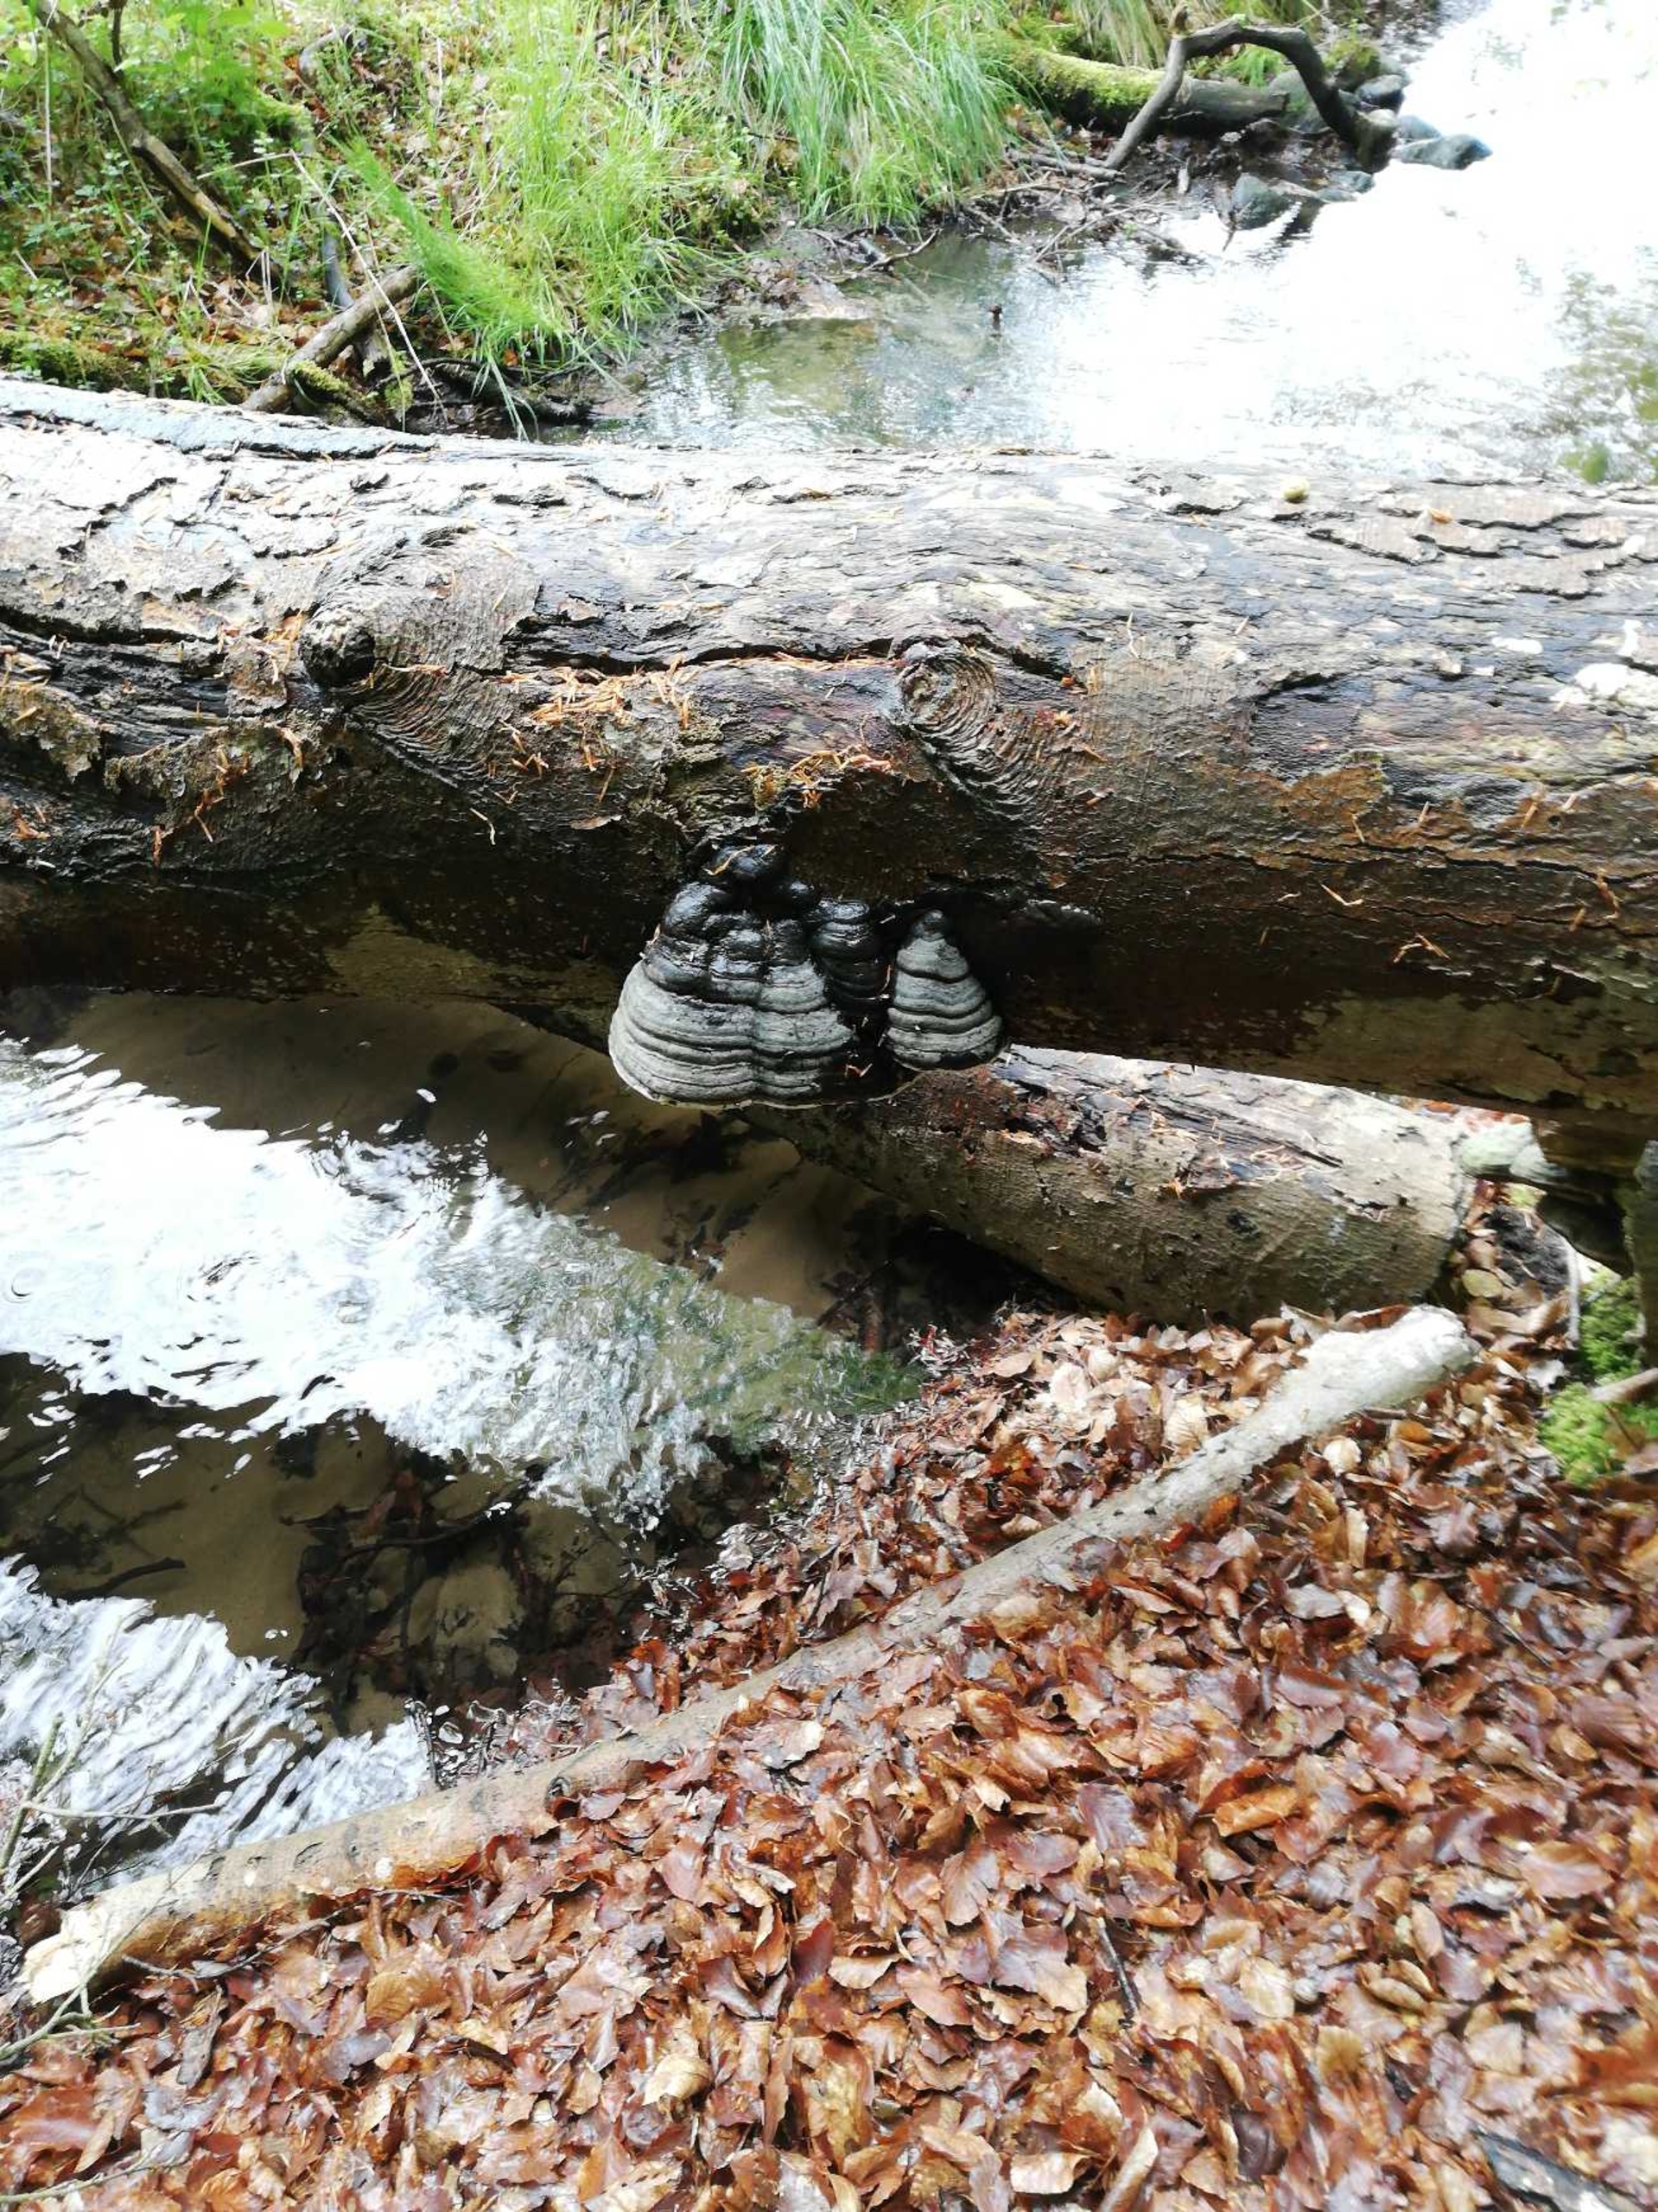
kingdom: Fungi
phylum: Basidiomycota
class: Agaricomycetes
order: Polyporales
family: Polyporaceae
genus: Fomes
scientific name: Fomes fomentarius
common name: Tøndersvamp
